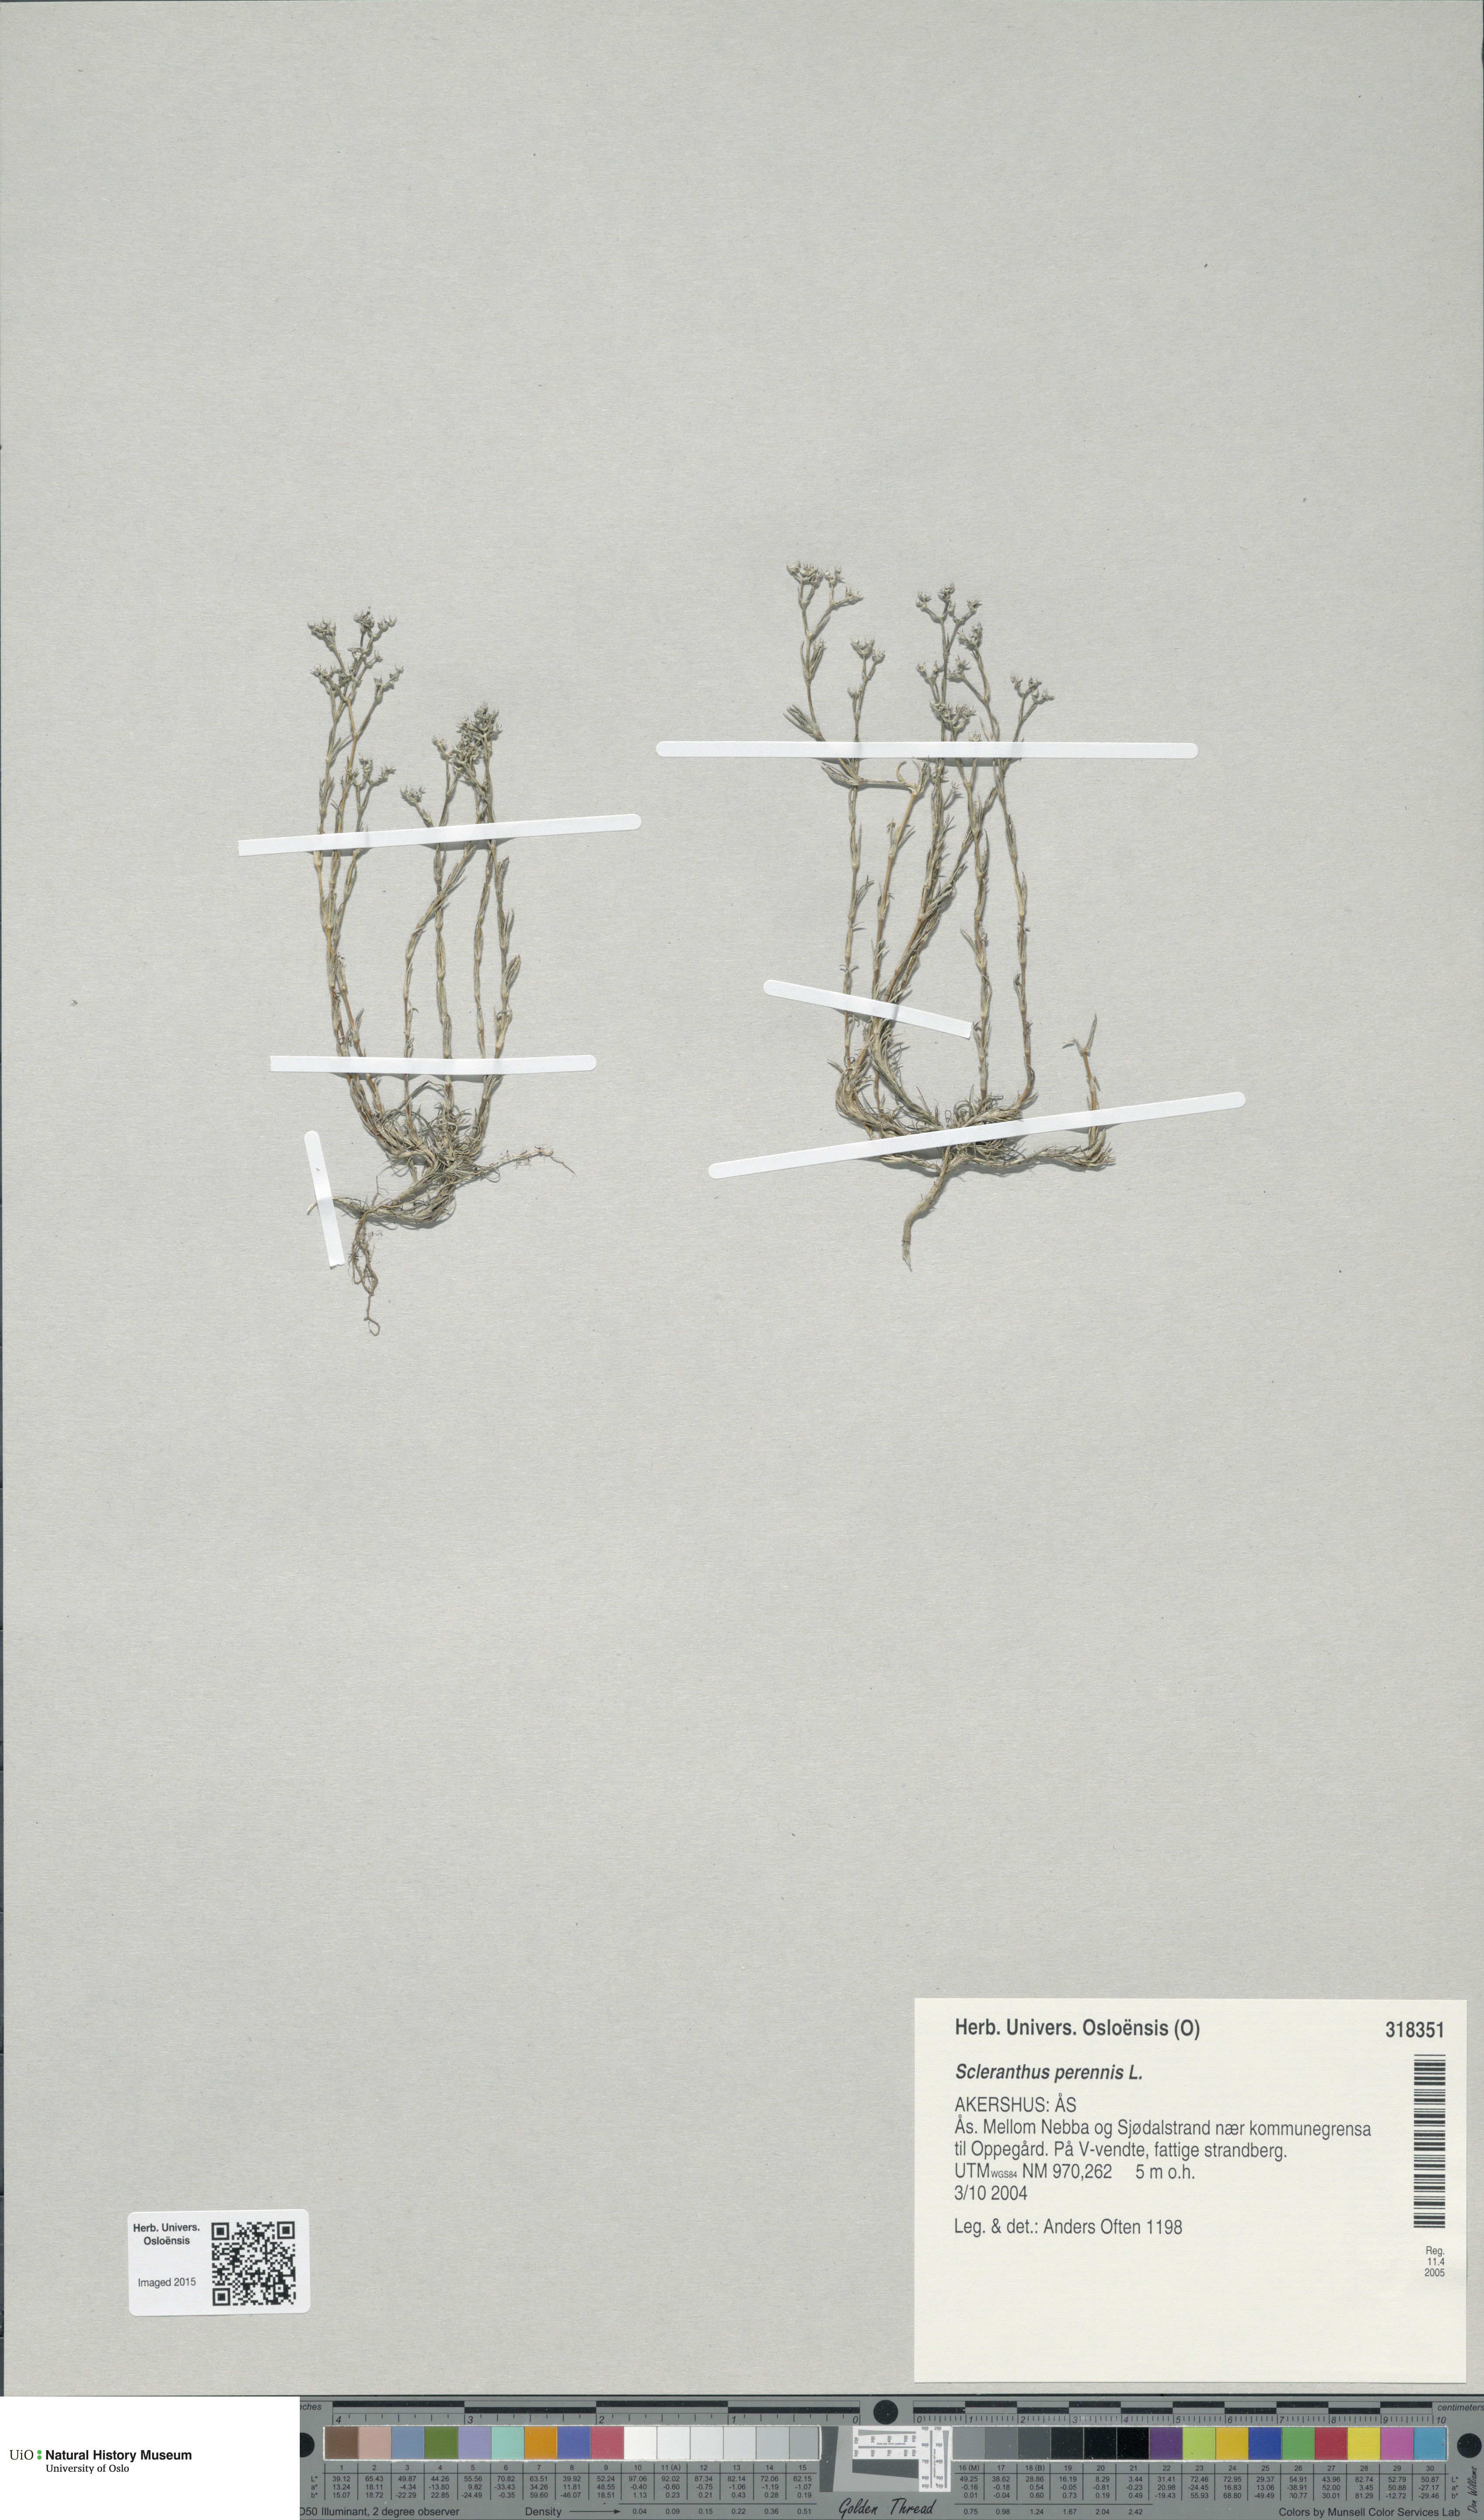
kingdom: Plantae
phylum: Tracheophyta
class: Magnoliopsida
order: Caryophyllales
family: Caryophyllaceae
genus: Scleranthus
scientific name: Scleranthus perennis
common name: Perennial knawel
